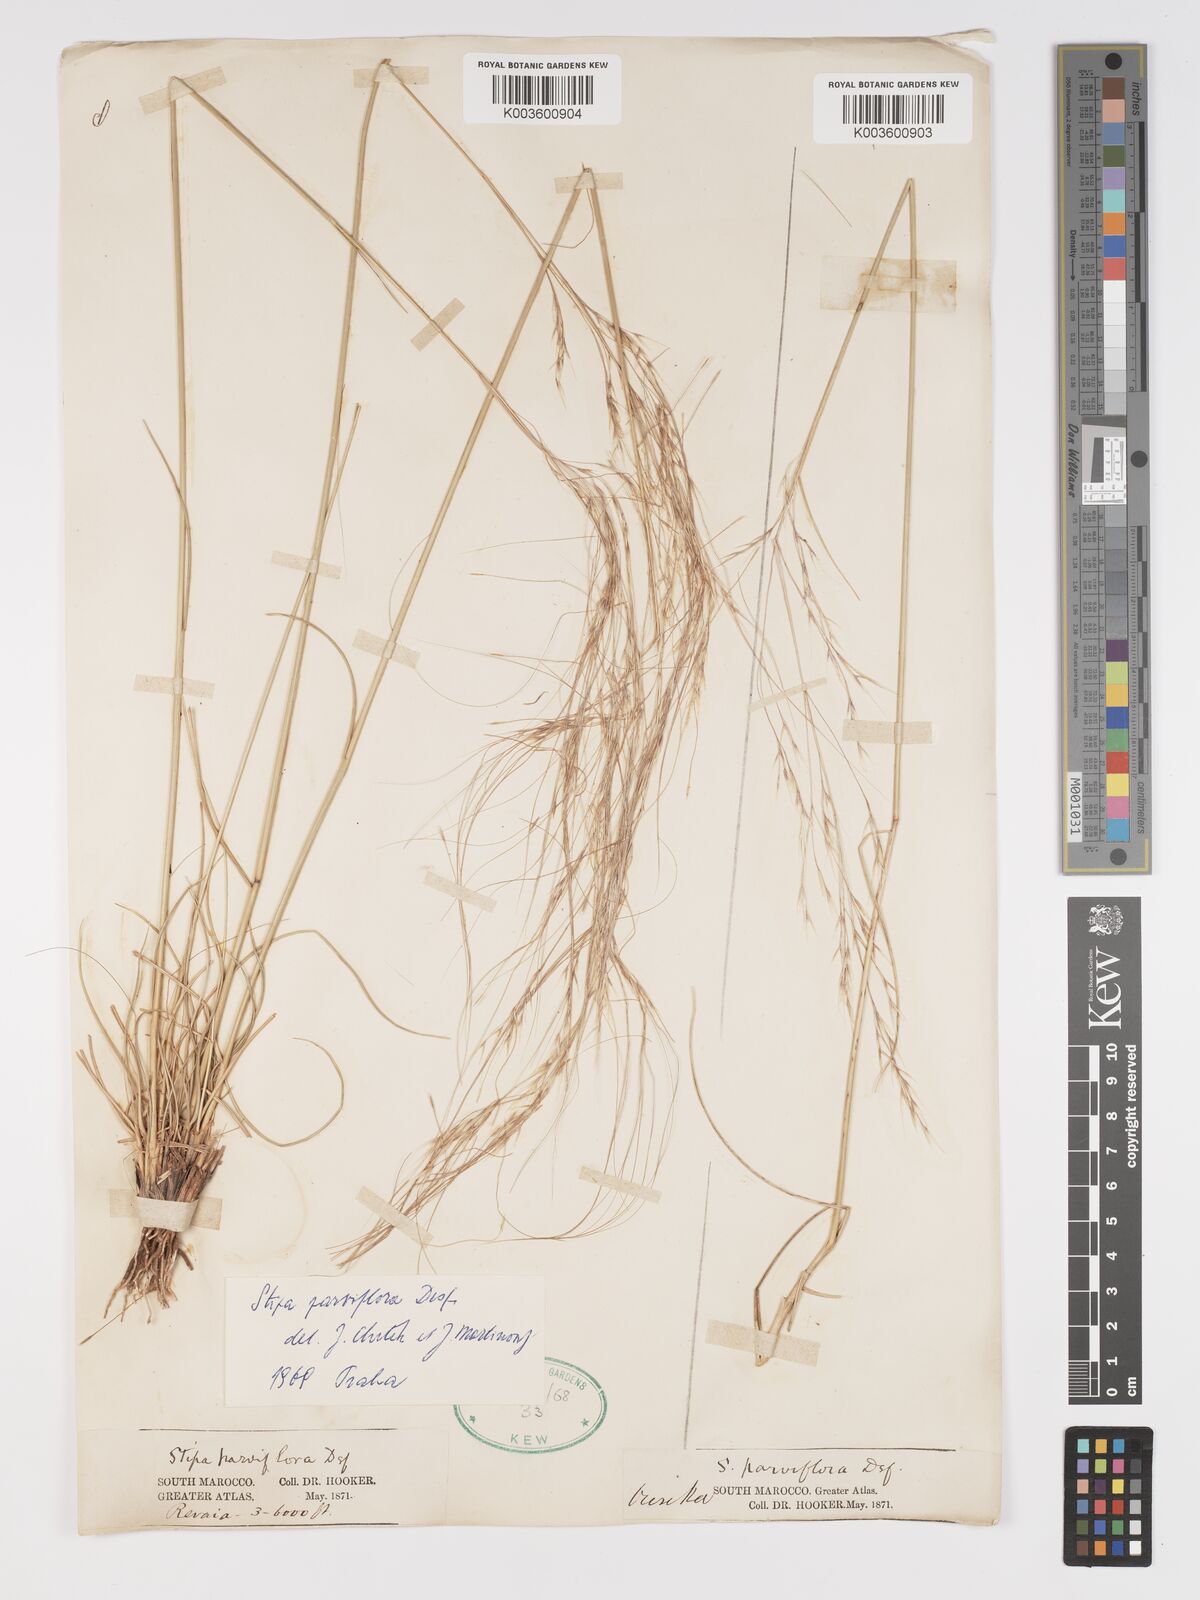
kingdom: Plantae
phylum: Tracheophyta
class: Liliopsida
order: Poales
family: Poaceae
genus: Achnatherum
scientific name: Achnatherum parviflorum
